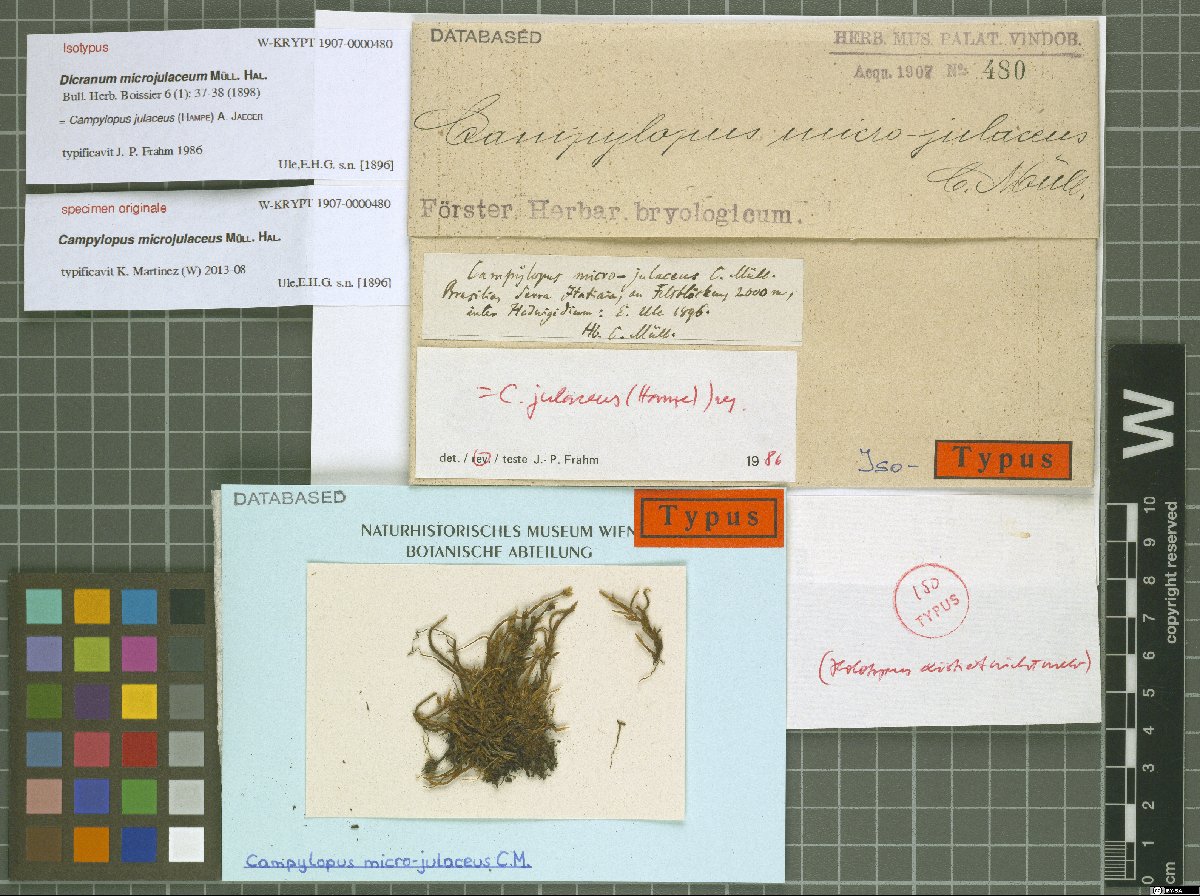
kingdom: Plantae
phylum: Bryophyta
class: Bryopsida
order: Dicranales
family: Leucobryaceae
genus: Campylopus
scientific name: Campylopus julaceus
